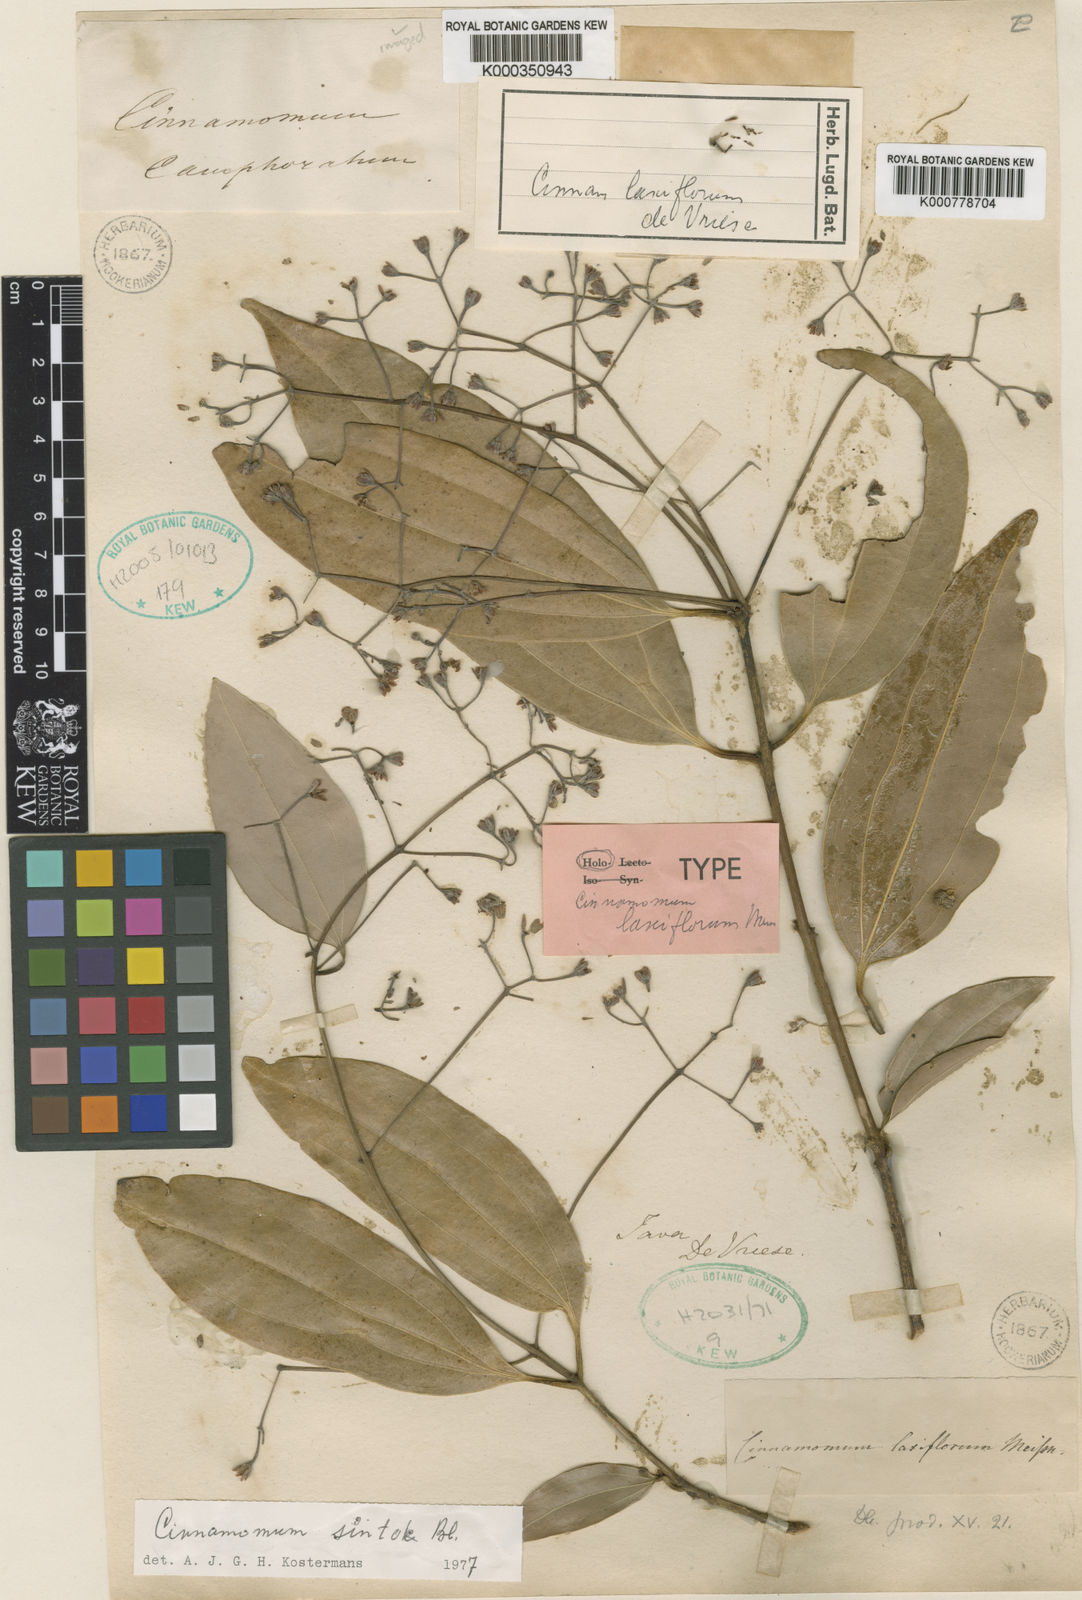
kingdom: Plantae
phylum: Tracheophyta
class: Magnoliopsida
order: Laurales
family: Lauraceae
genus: Cinnamomum
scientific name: Cinnamomum
